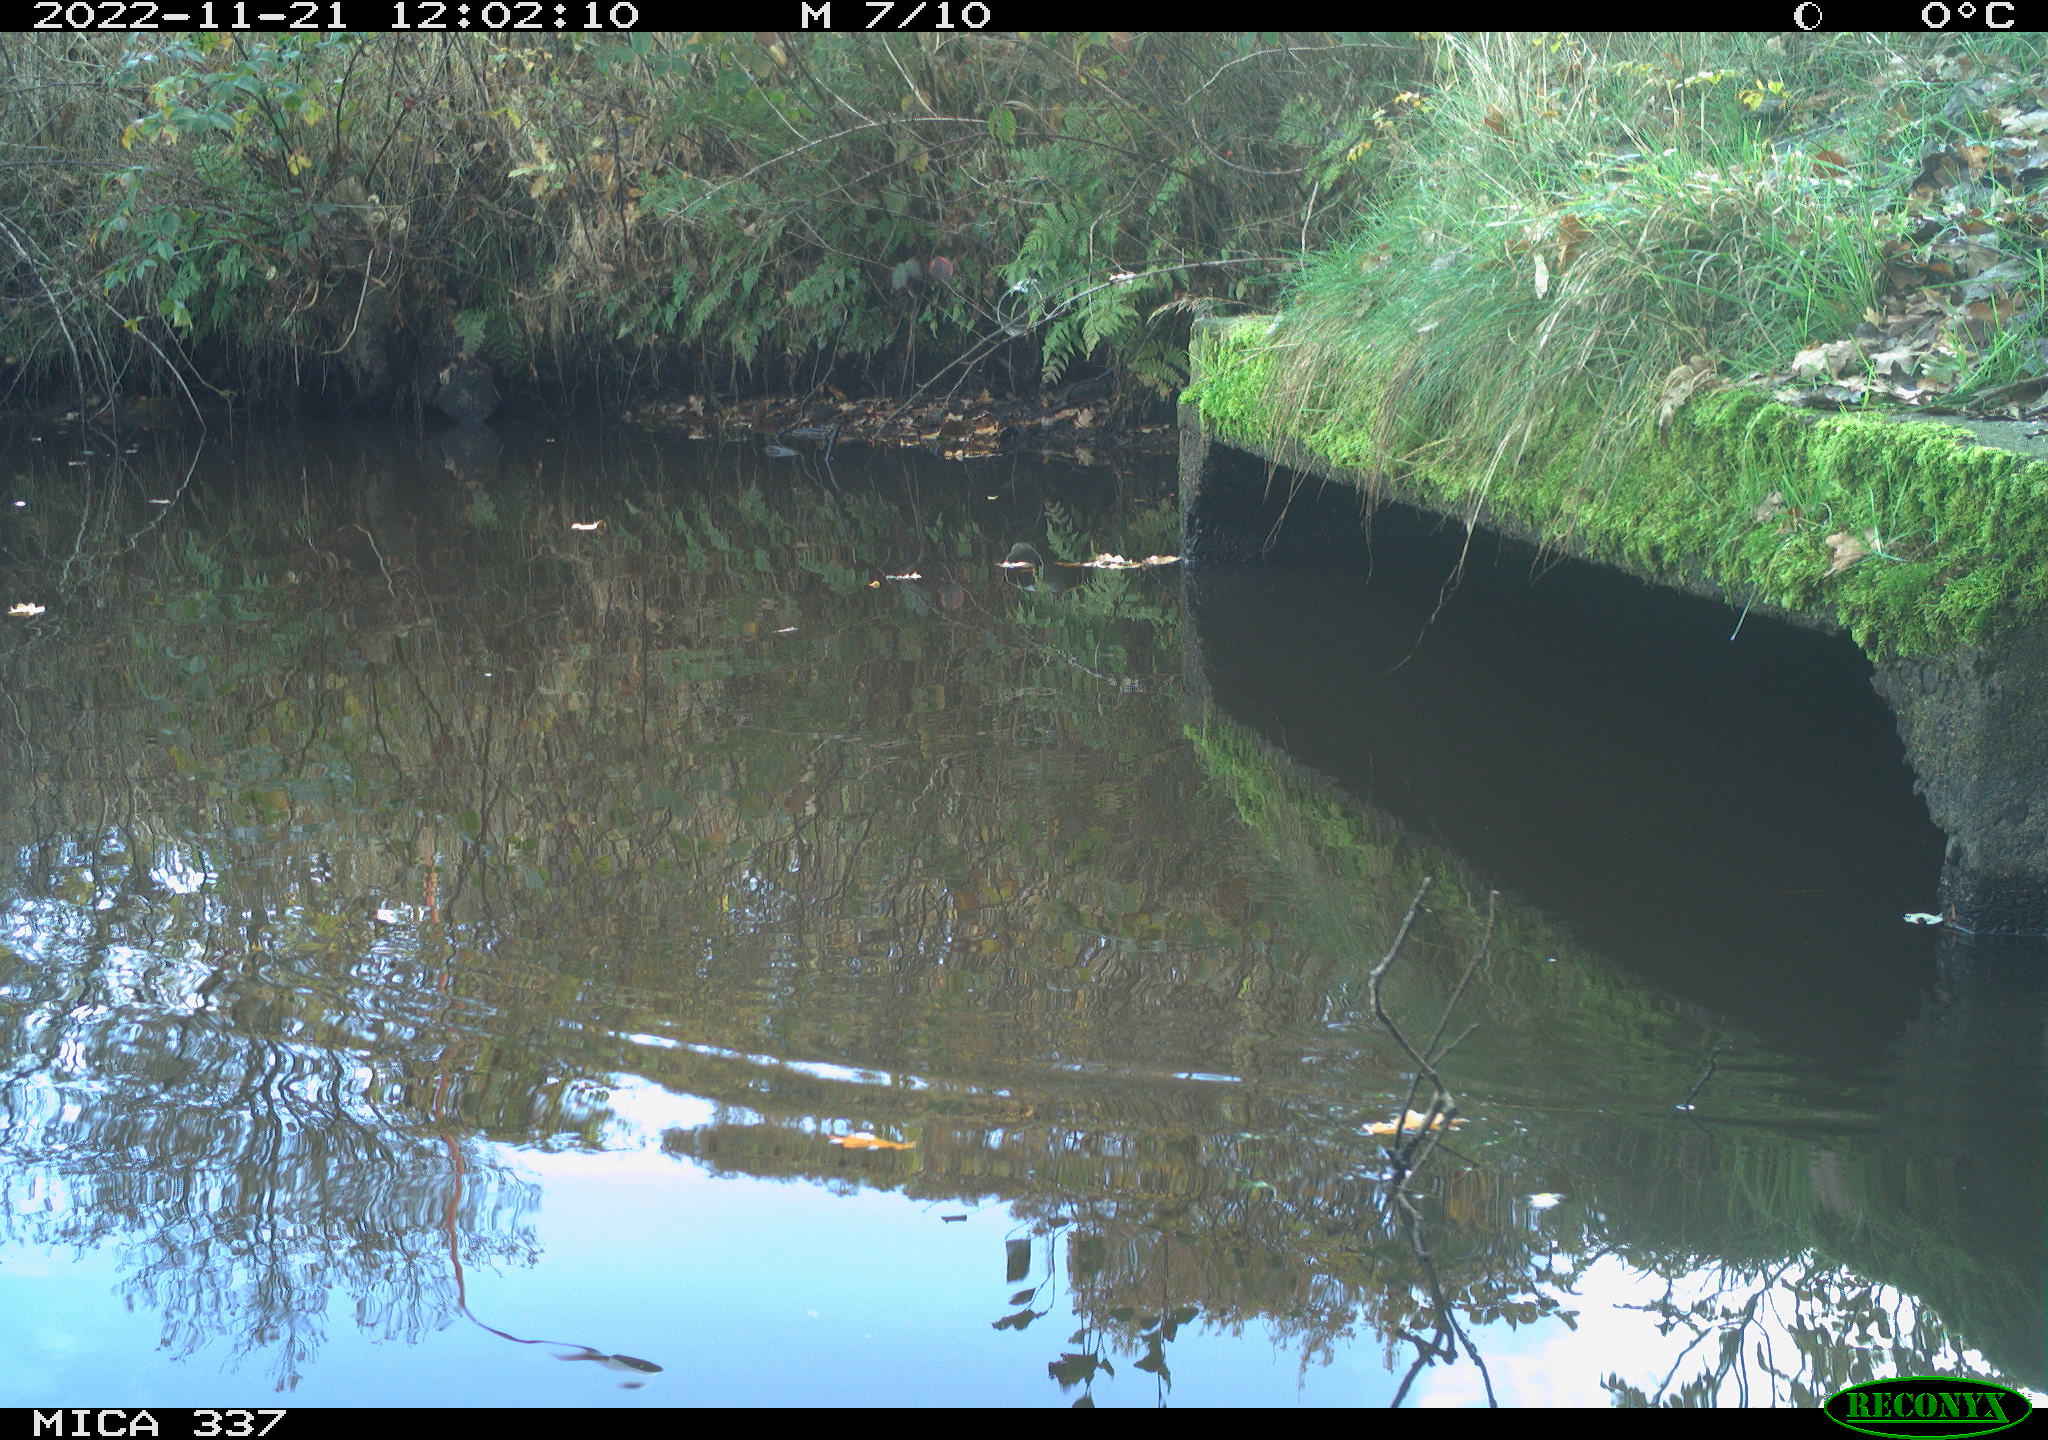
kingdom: Animalia
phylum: Chordata
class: Aves
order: Gruiformes
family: Rallidae
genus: Gallinula
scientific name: Gallinula chloropus
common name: Common moorhen
